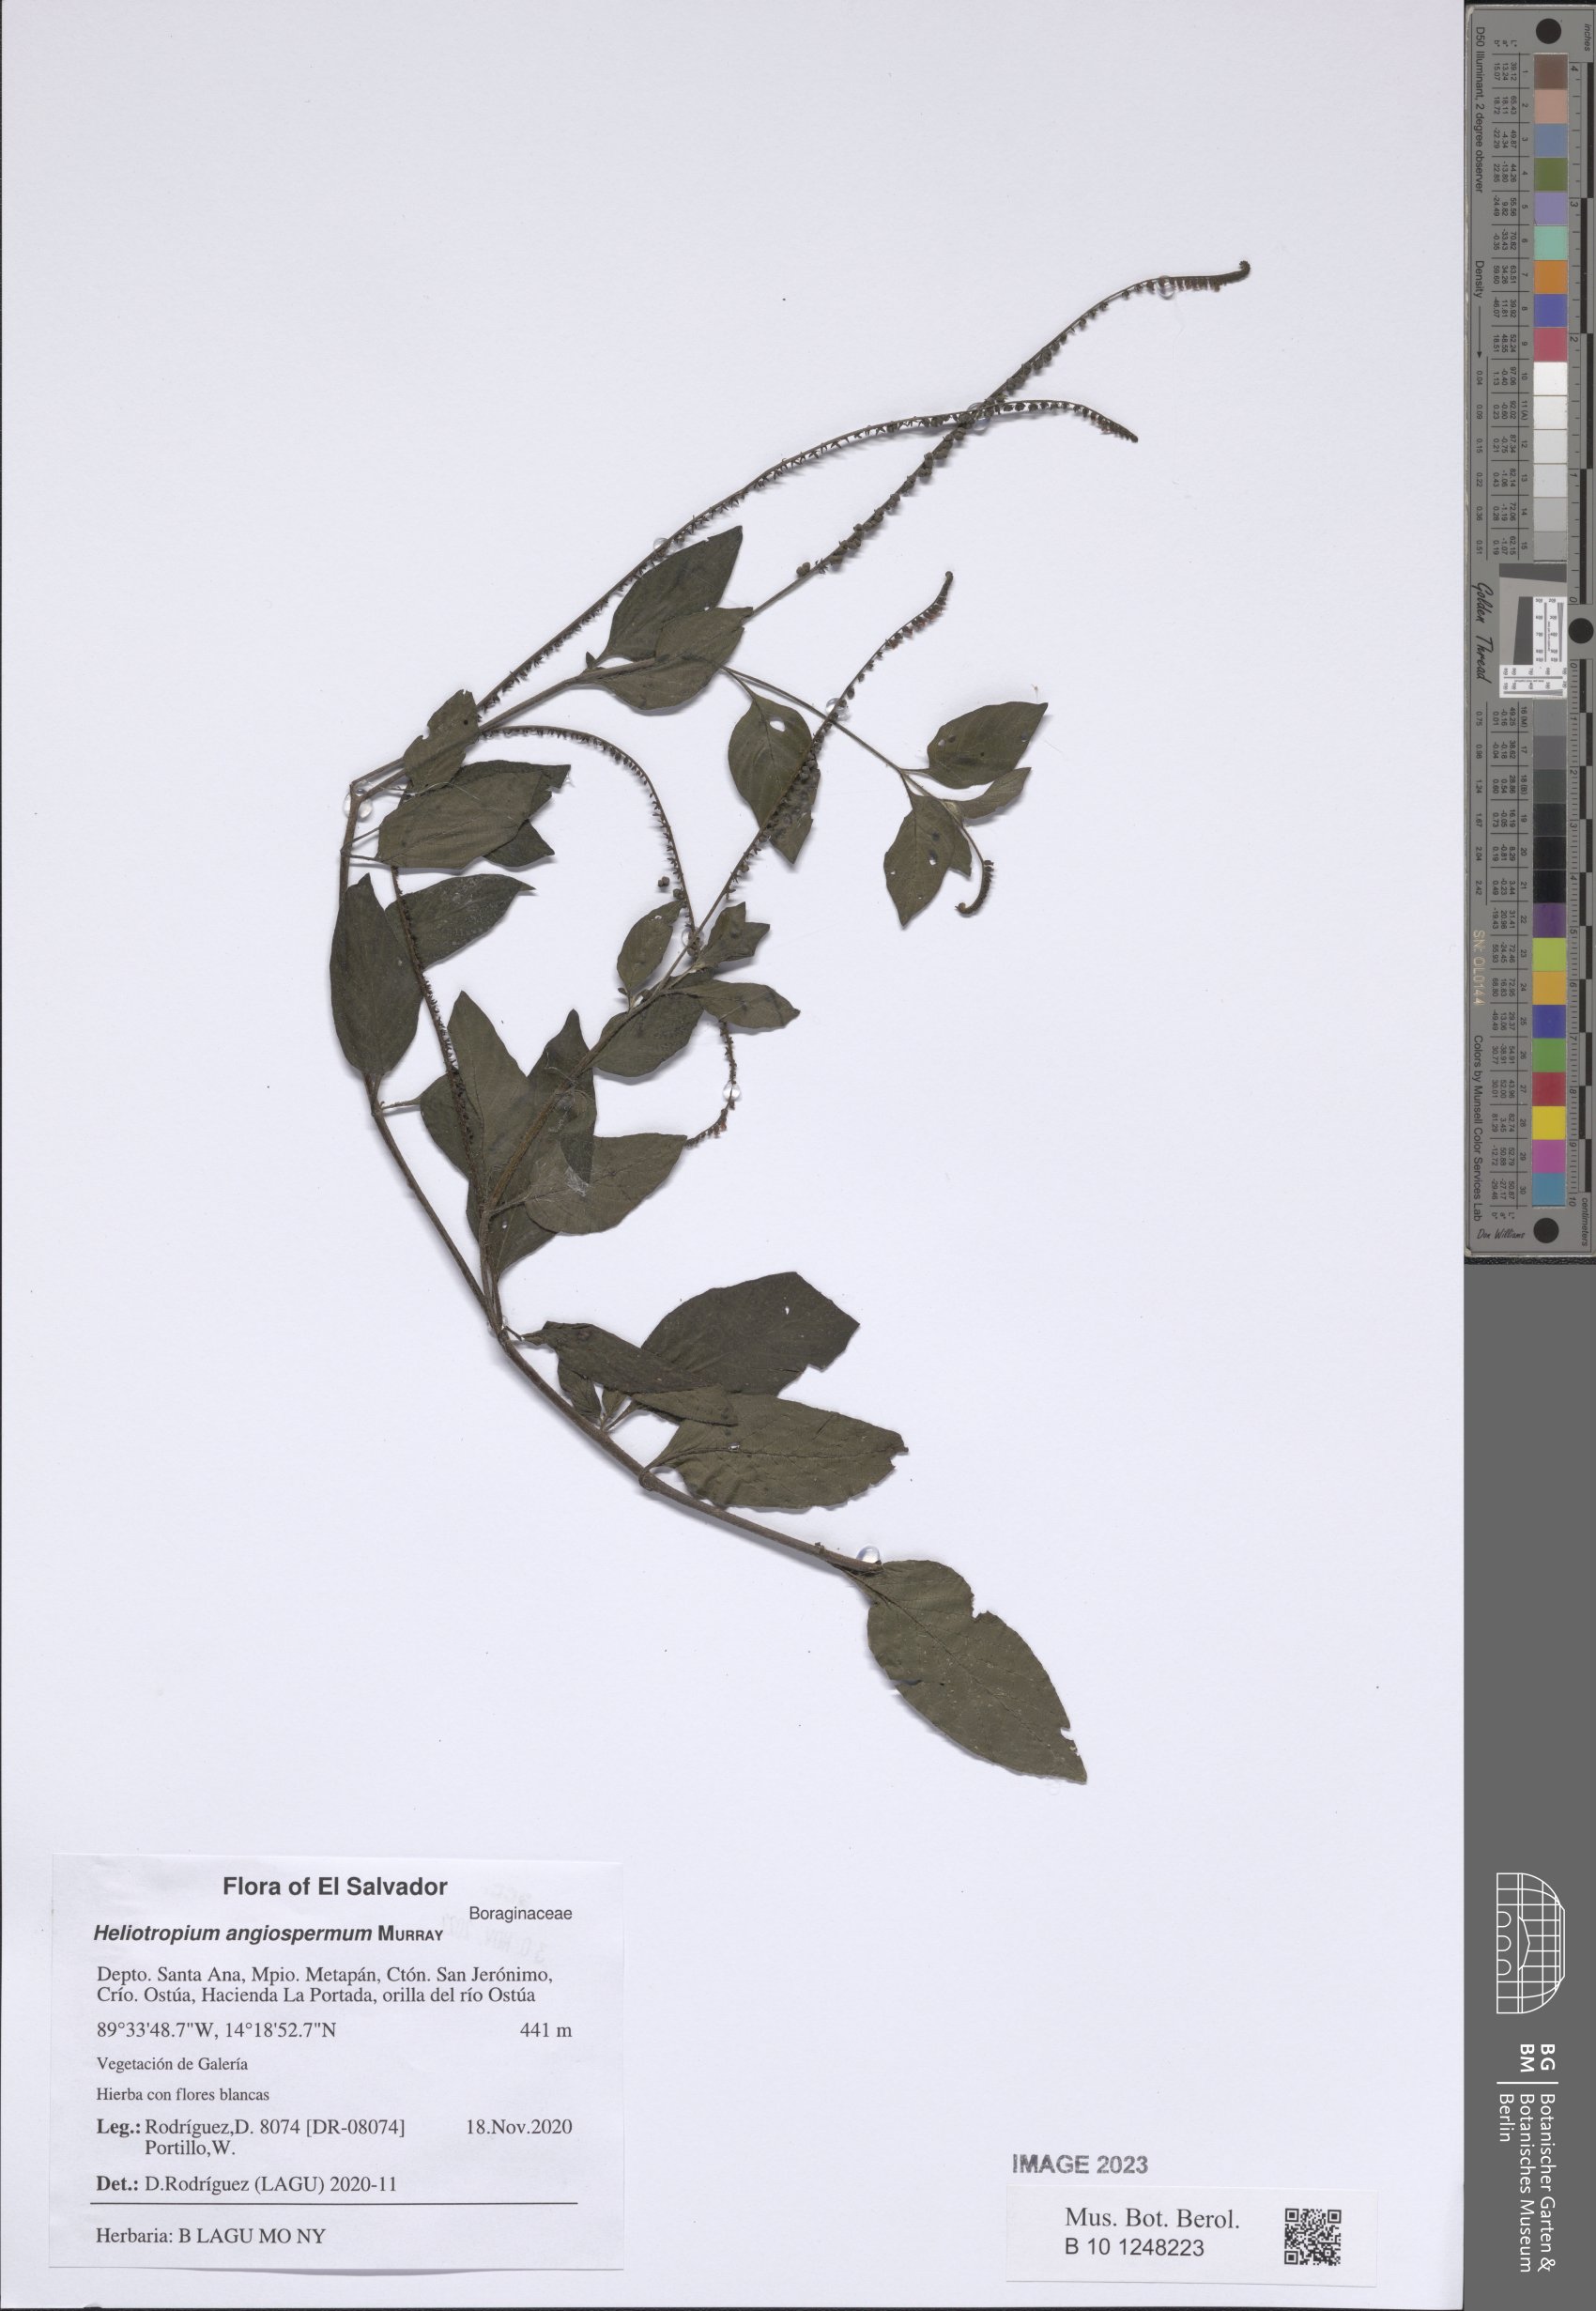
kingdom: Plantae
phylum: Tracheophyta
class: Magnoliopsida
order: Boraginales
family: Heliotropiaceae
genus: Heliotropium
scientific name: Heliotropium angiospermum
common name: Eye bright
